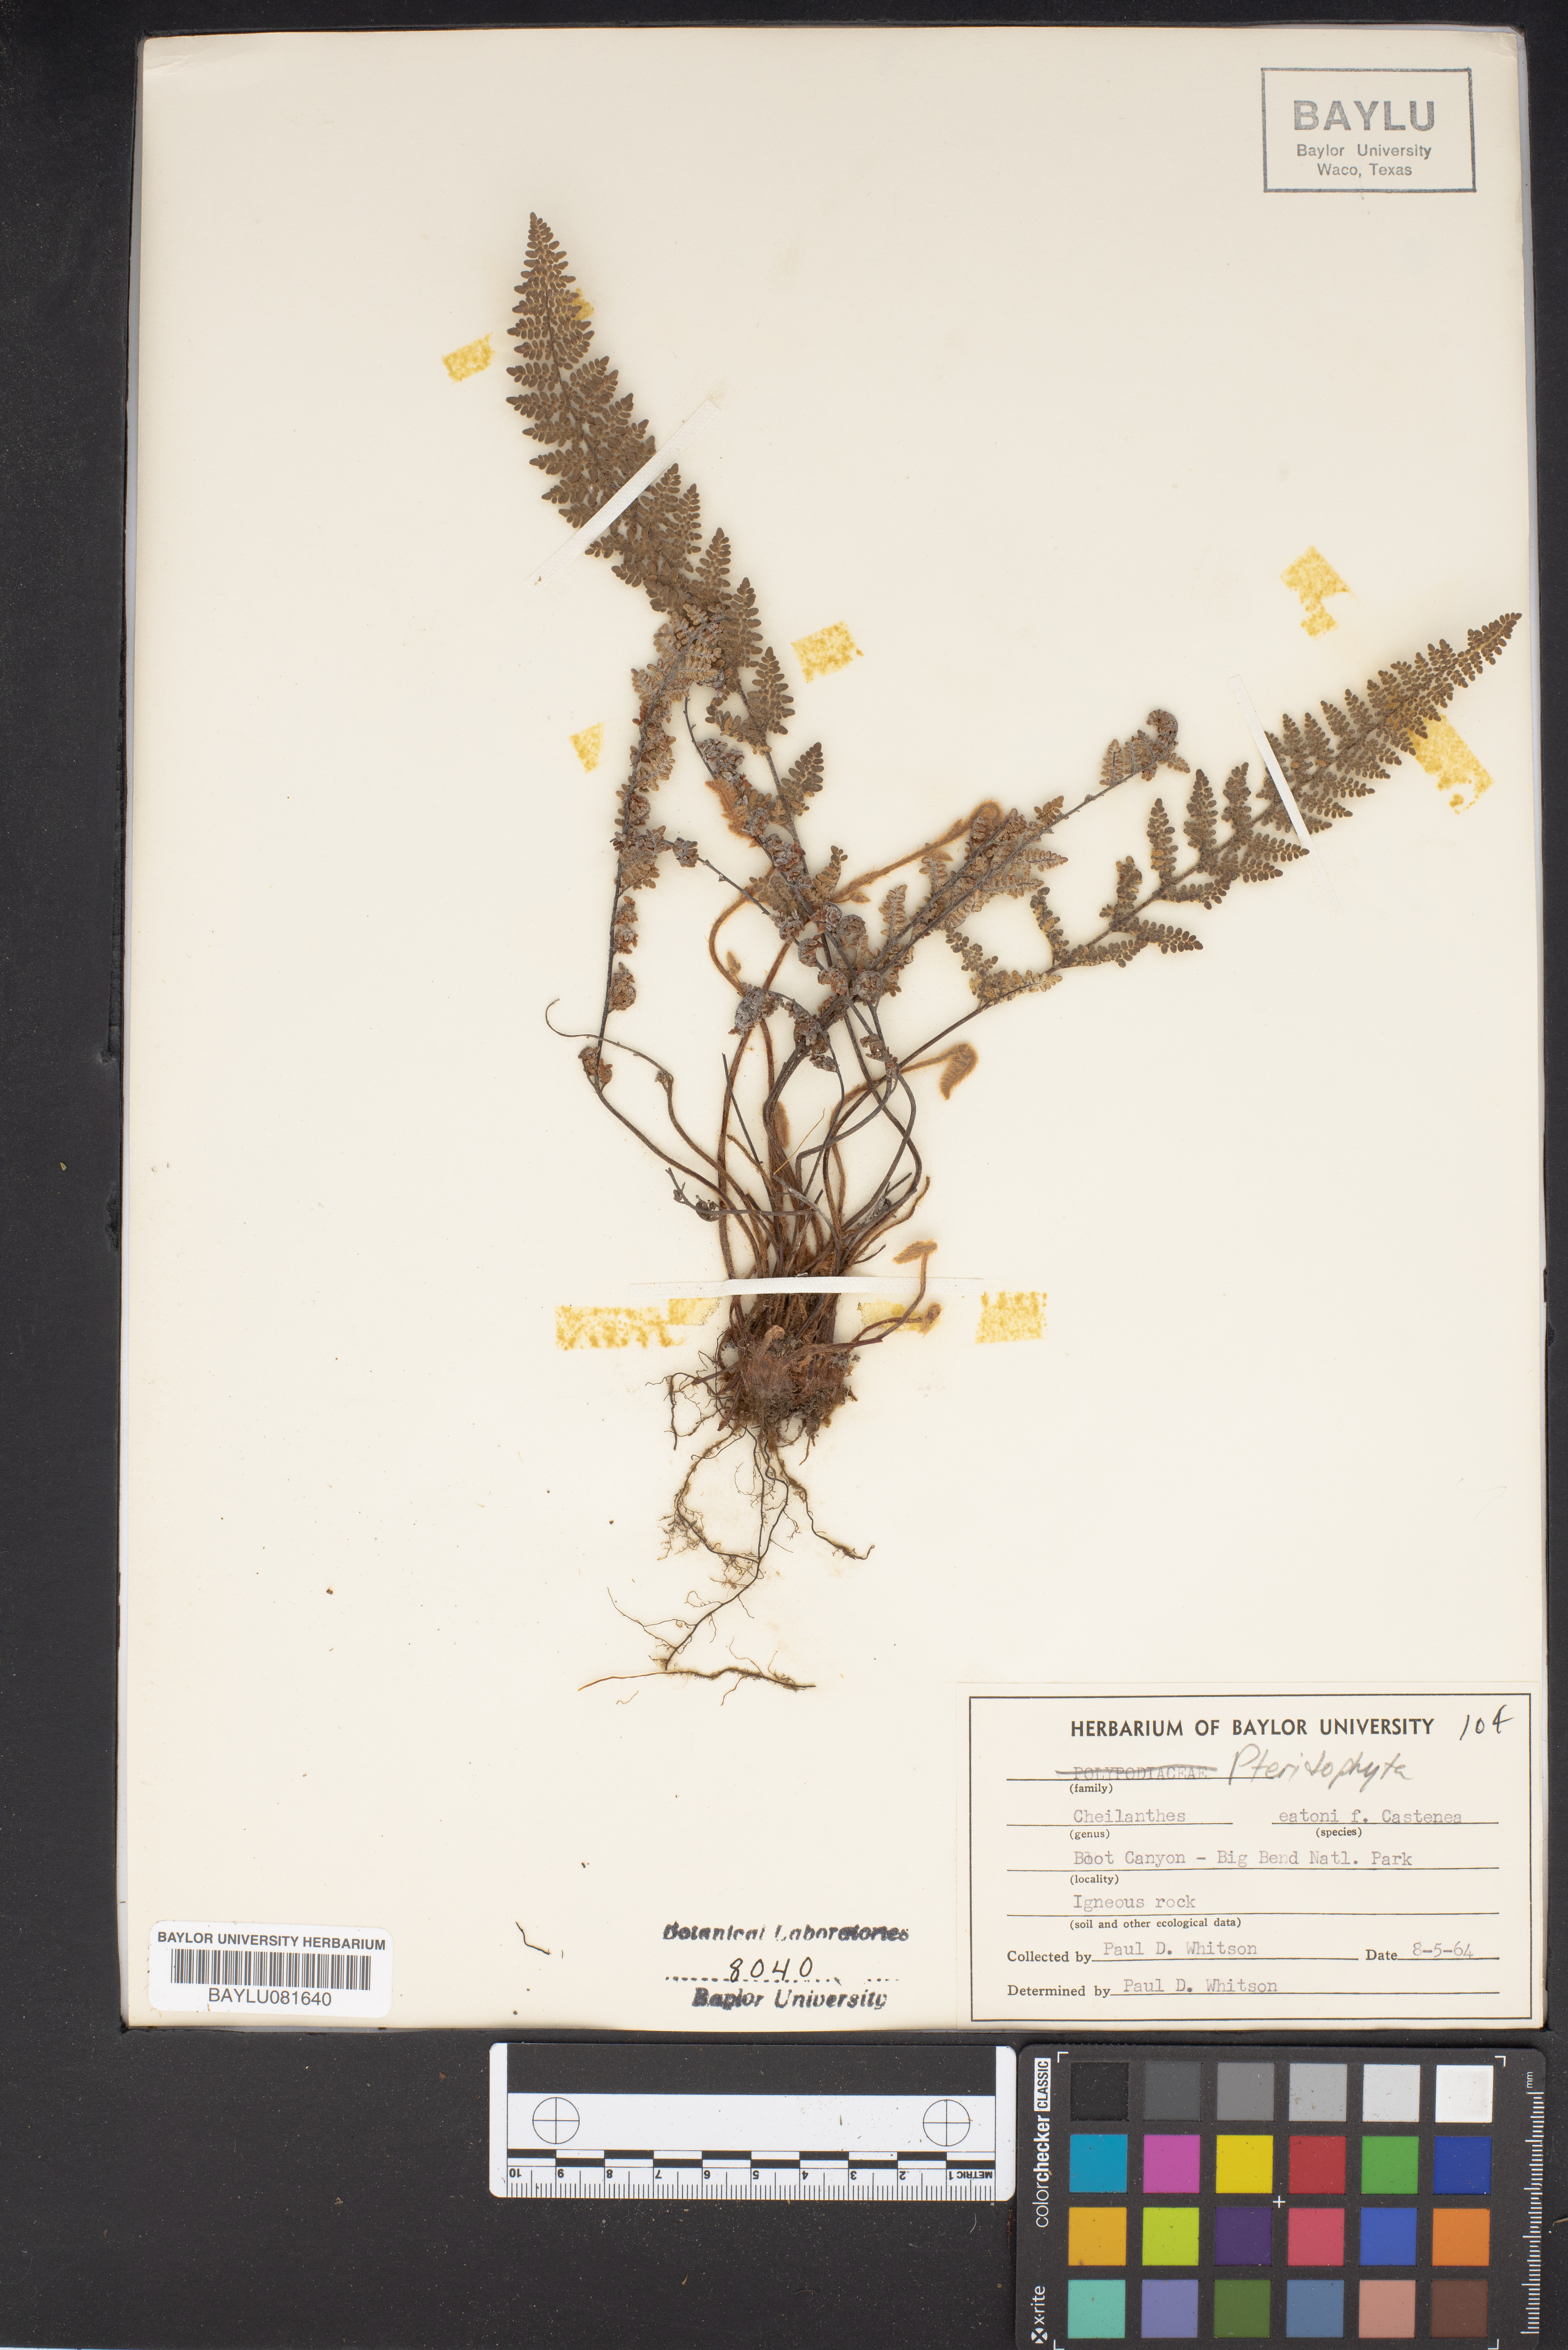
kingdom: Plantae
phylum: Tracheophyta
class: Polypodiopsida
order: Polypodiales
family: Pteridaceae
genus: Myriopteris
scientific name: Myriopteris rufa
